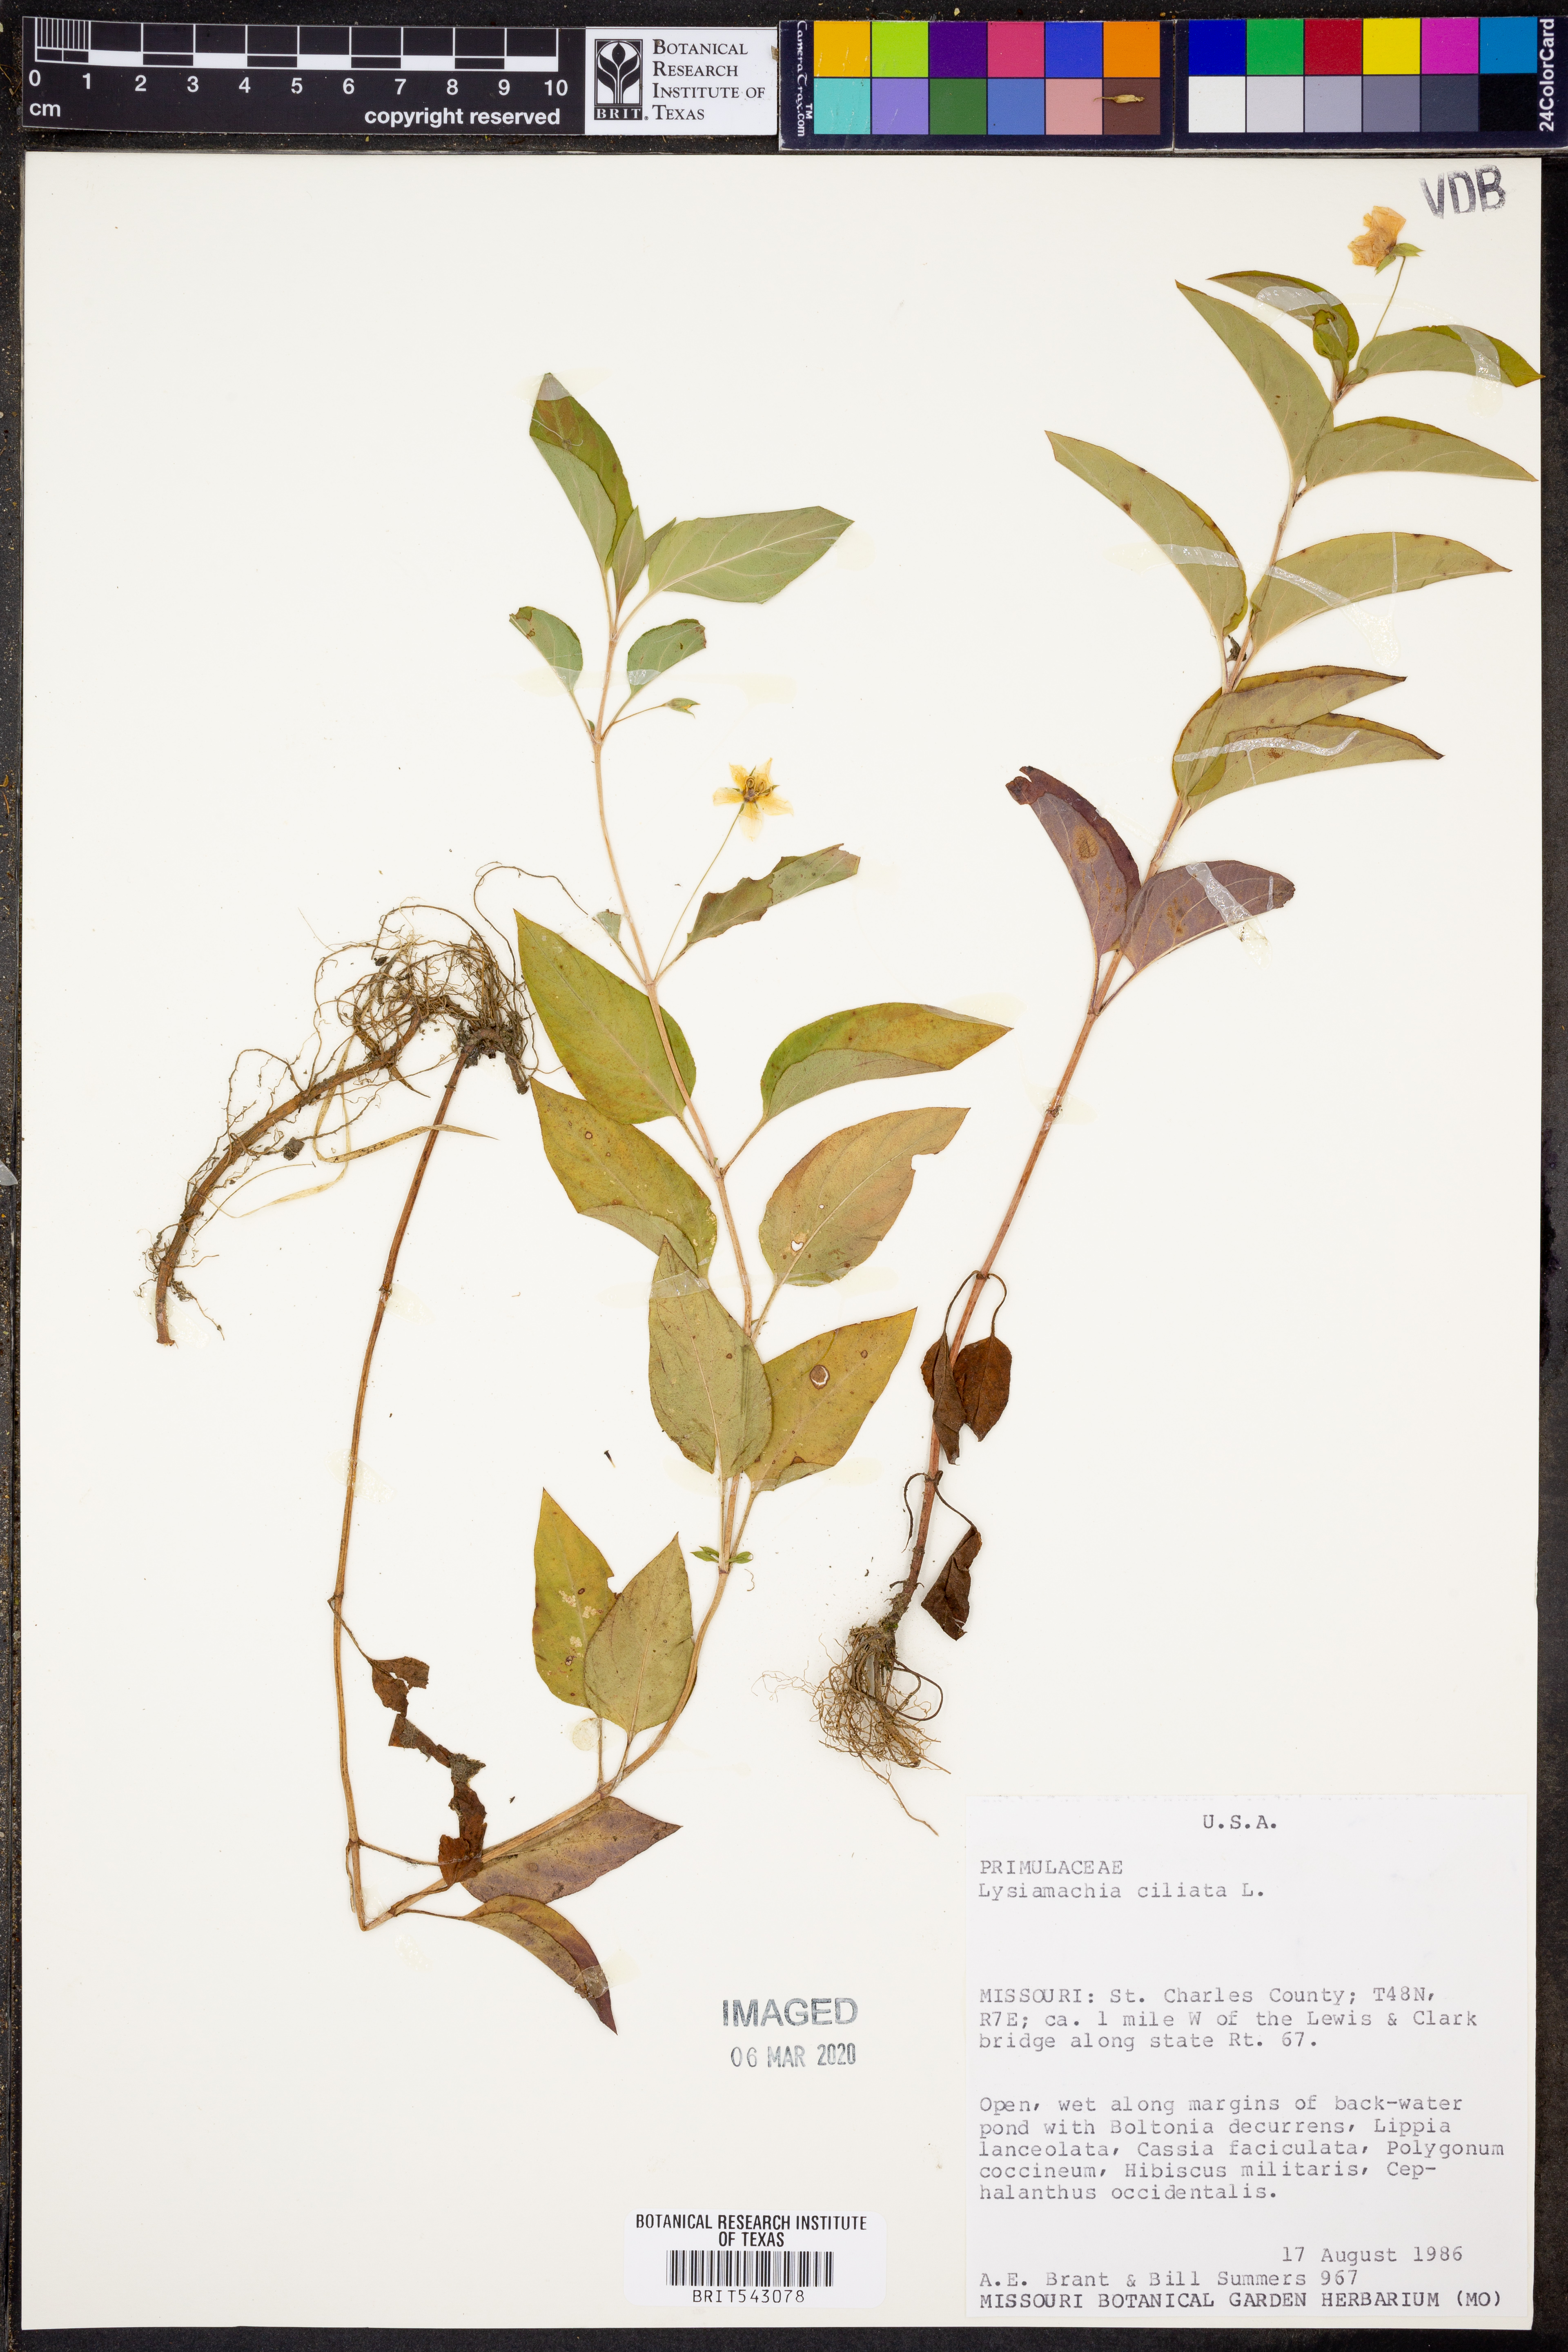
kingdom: Plantae
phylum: Tracheophyta
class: Magnoliopsida
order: Ericales
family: Primulaceae
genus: Lysimachia
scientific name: Lysimachia ciliata
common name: Fringed loosestrife
